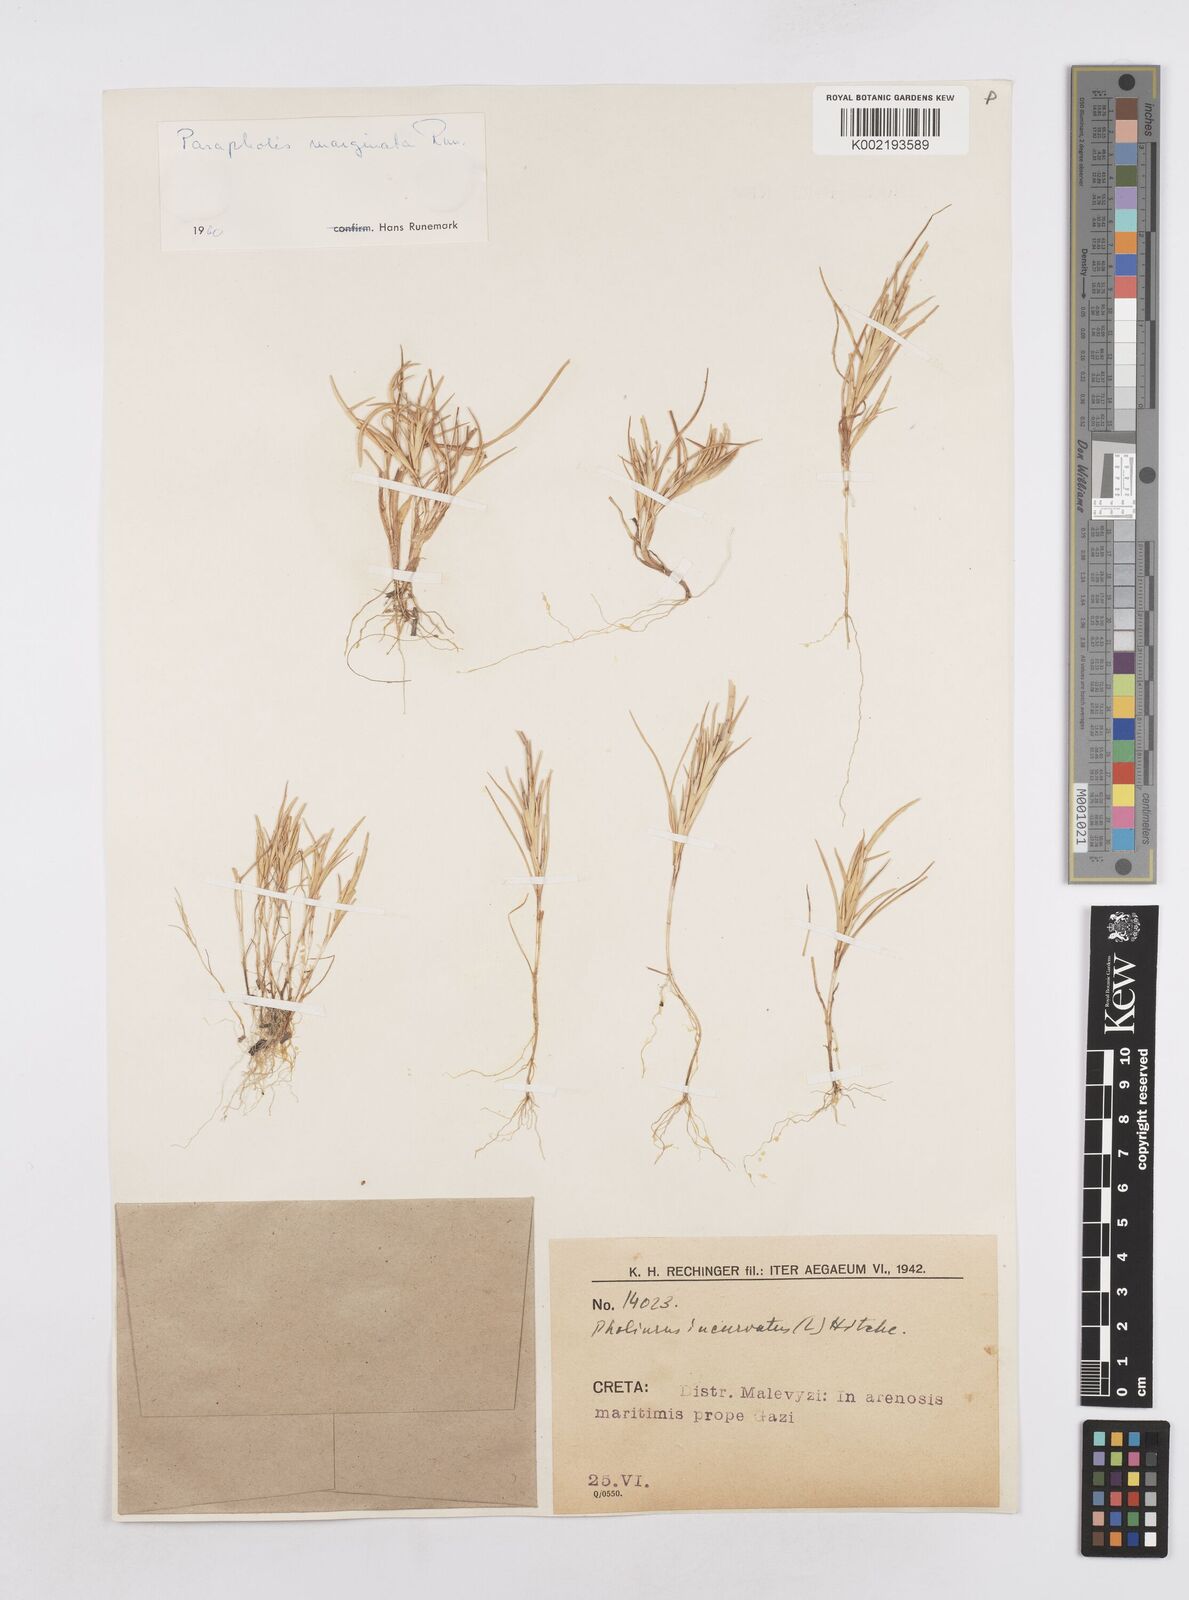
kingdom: Plantae
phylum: Tracheophyta
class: Liliopsida
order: Poales
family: Poaceae
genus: Parapholis
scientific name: Parapholis marginata
